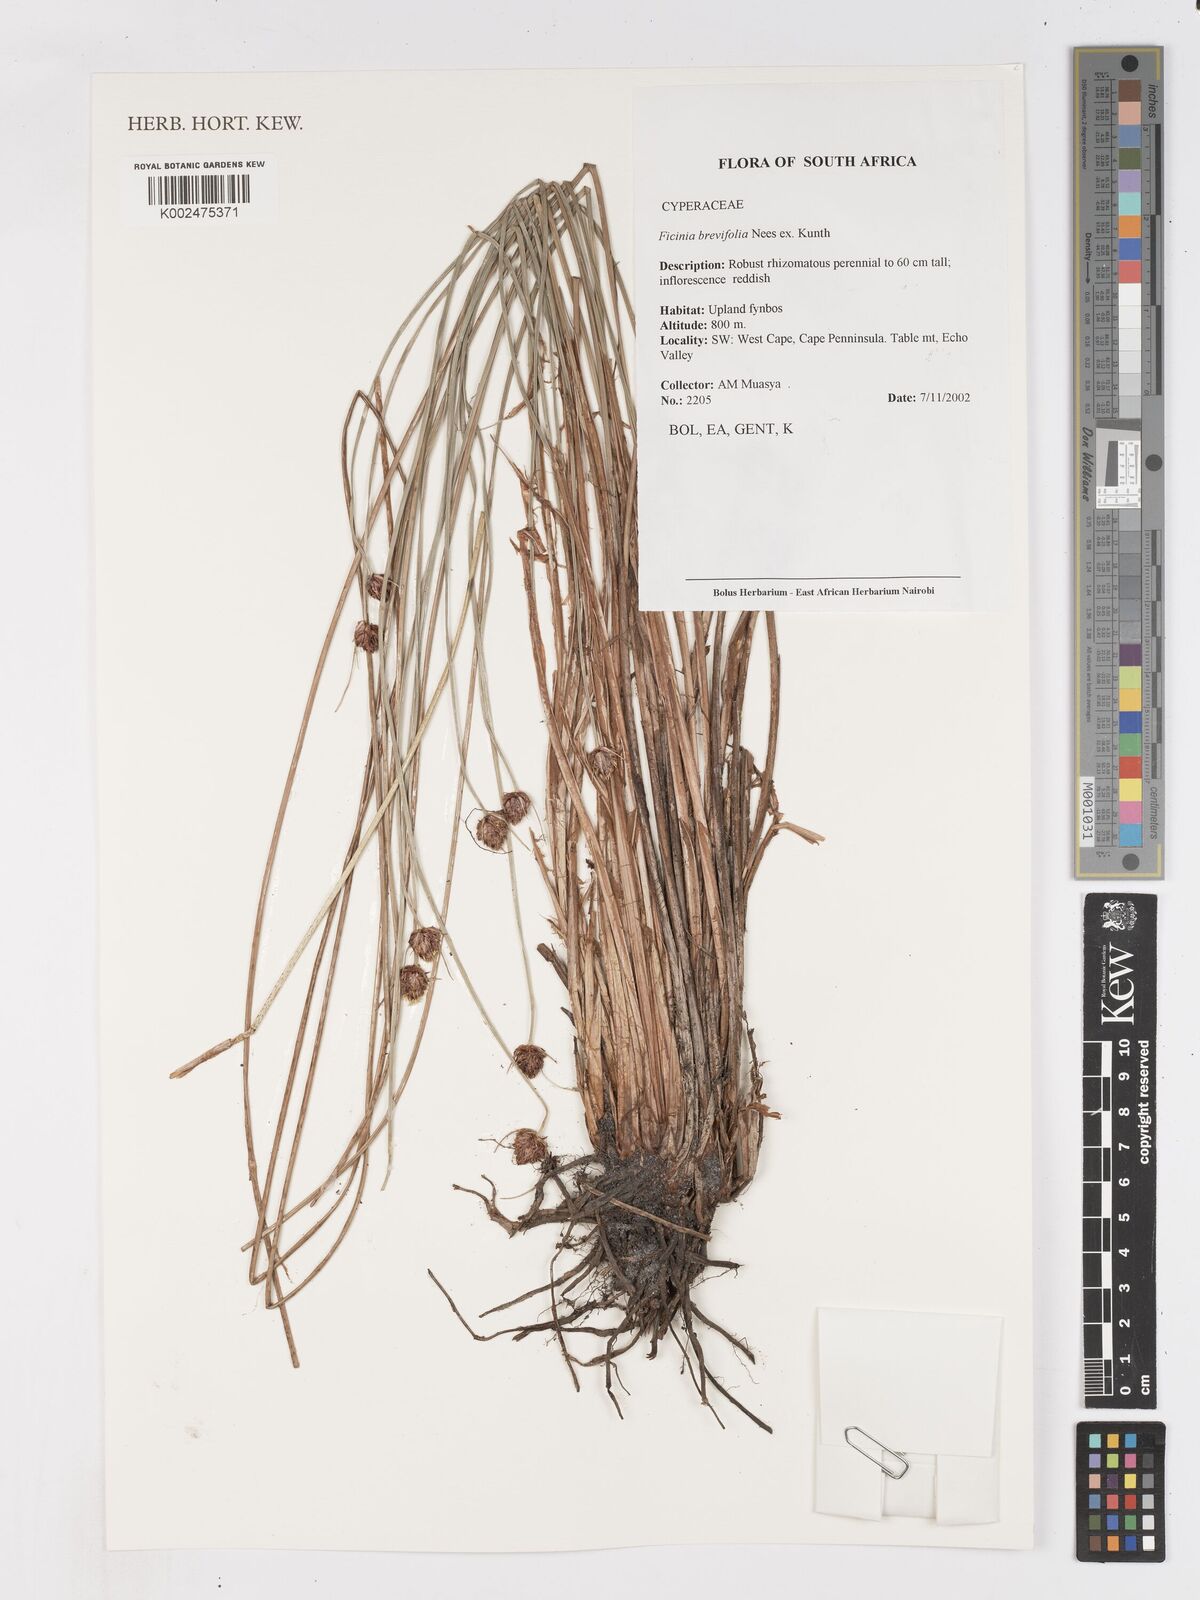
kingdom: Plantae
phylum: Tracheophyta
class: Liliopsida
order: Poales
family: Cyperaceae
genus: Ficinia
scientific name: Ficinia brevifolia
